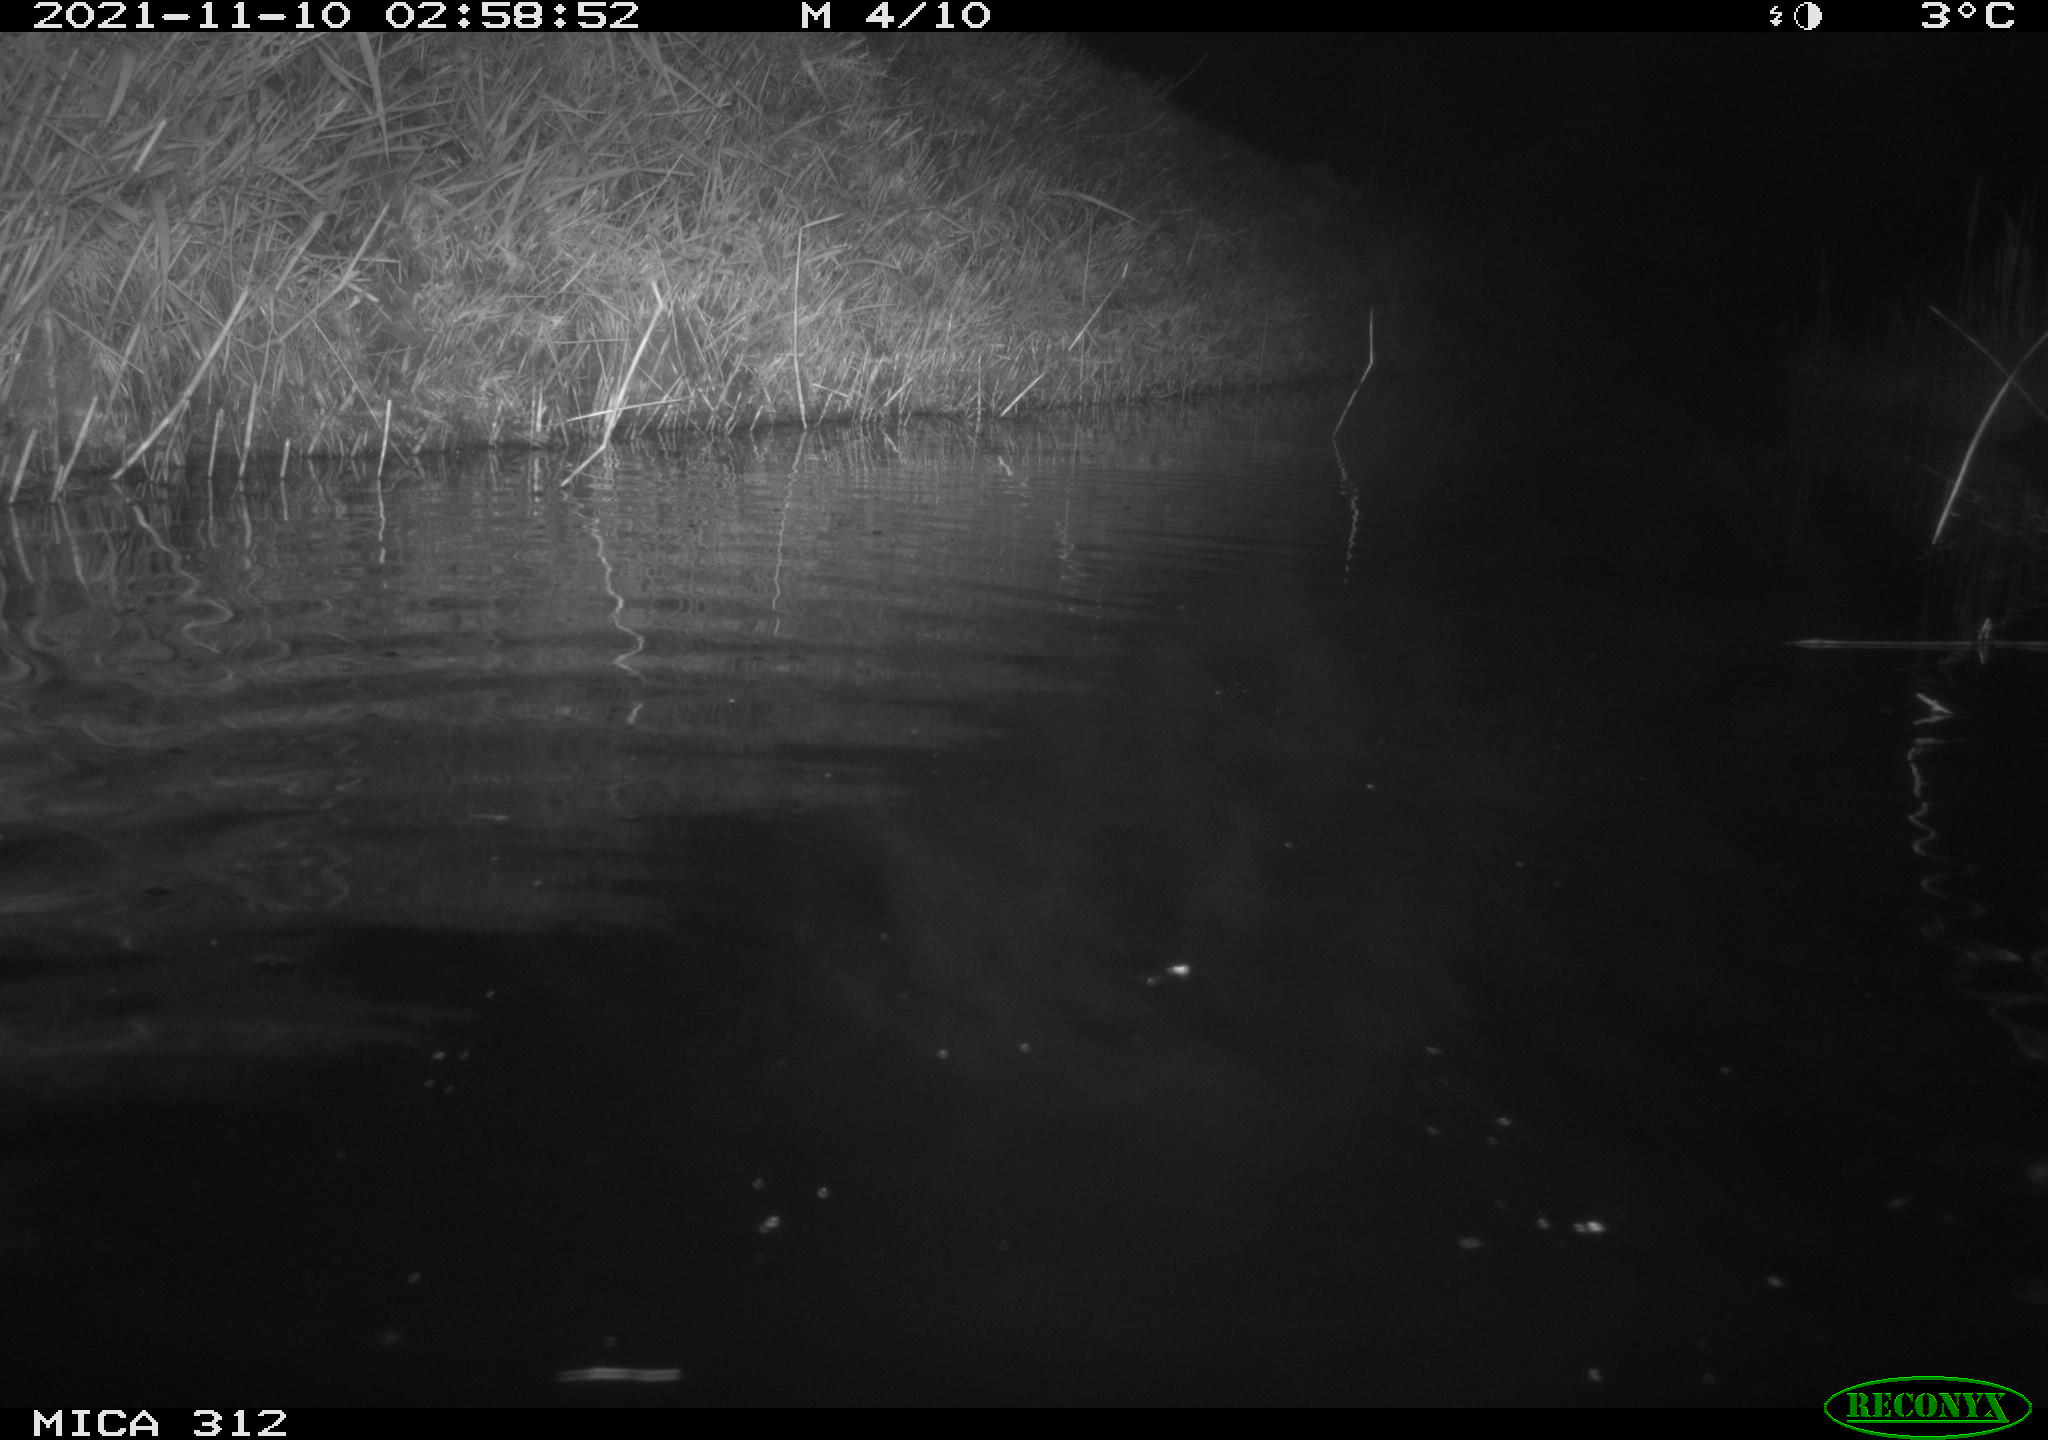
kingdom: Animalia
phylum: Chordata
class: Mammalia
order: Rodentia
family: Muridae
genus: Rattus
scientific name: Rattus norvegicus
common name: Brown rat
